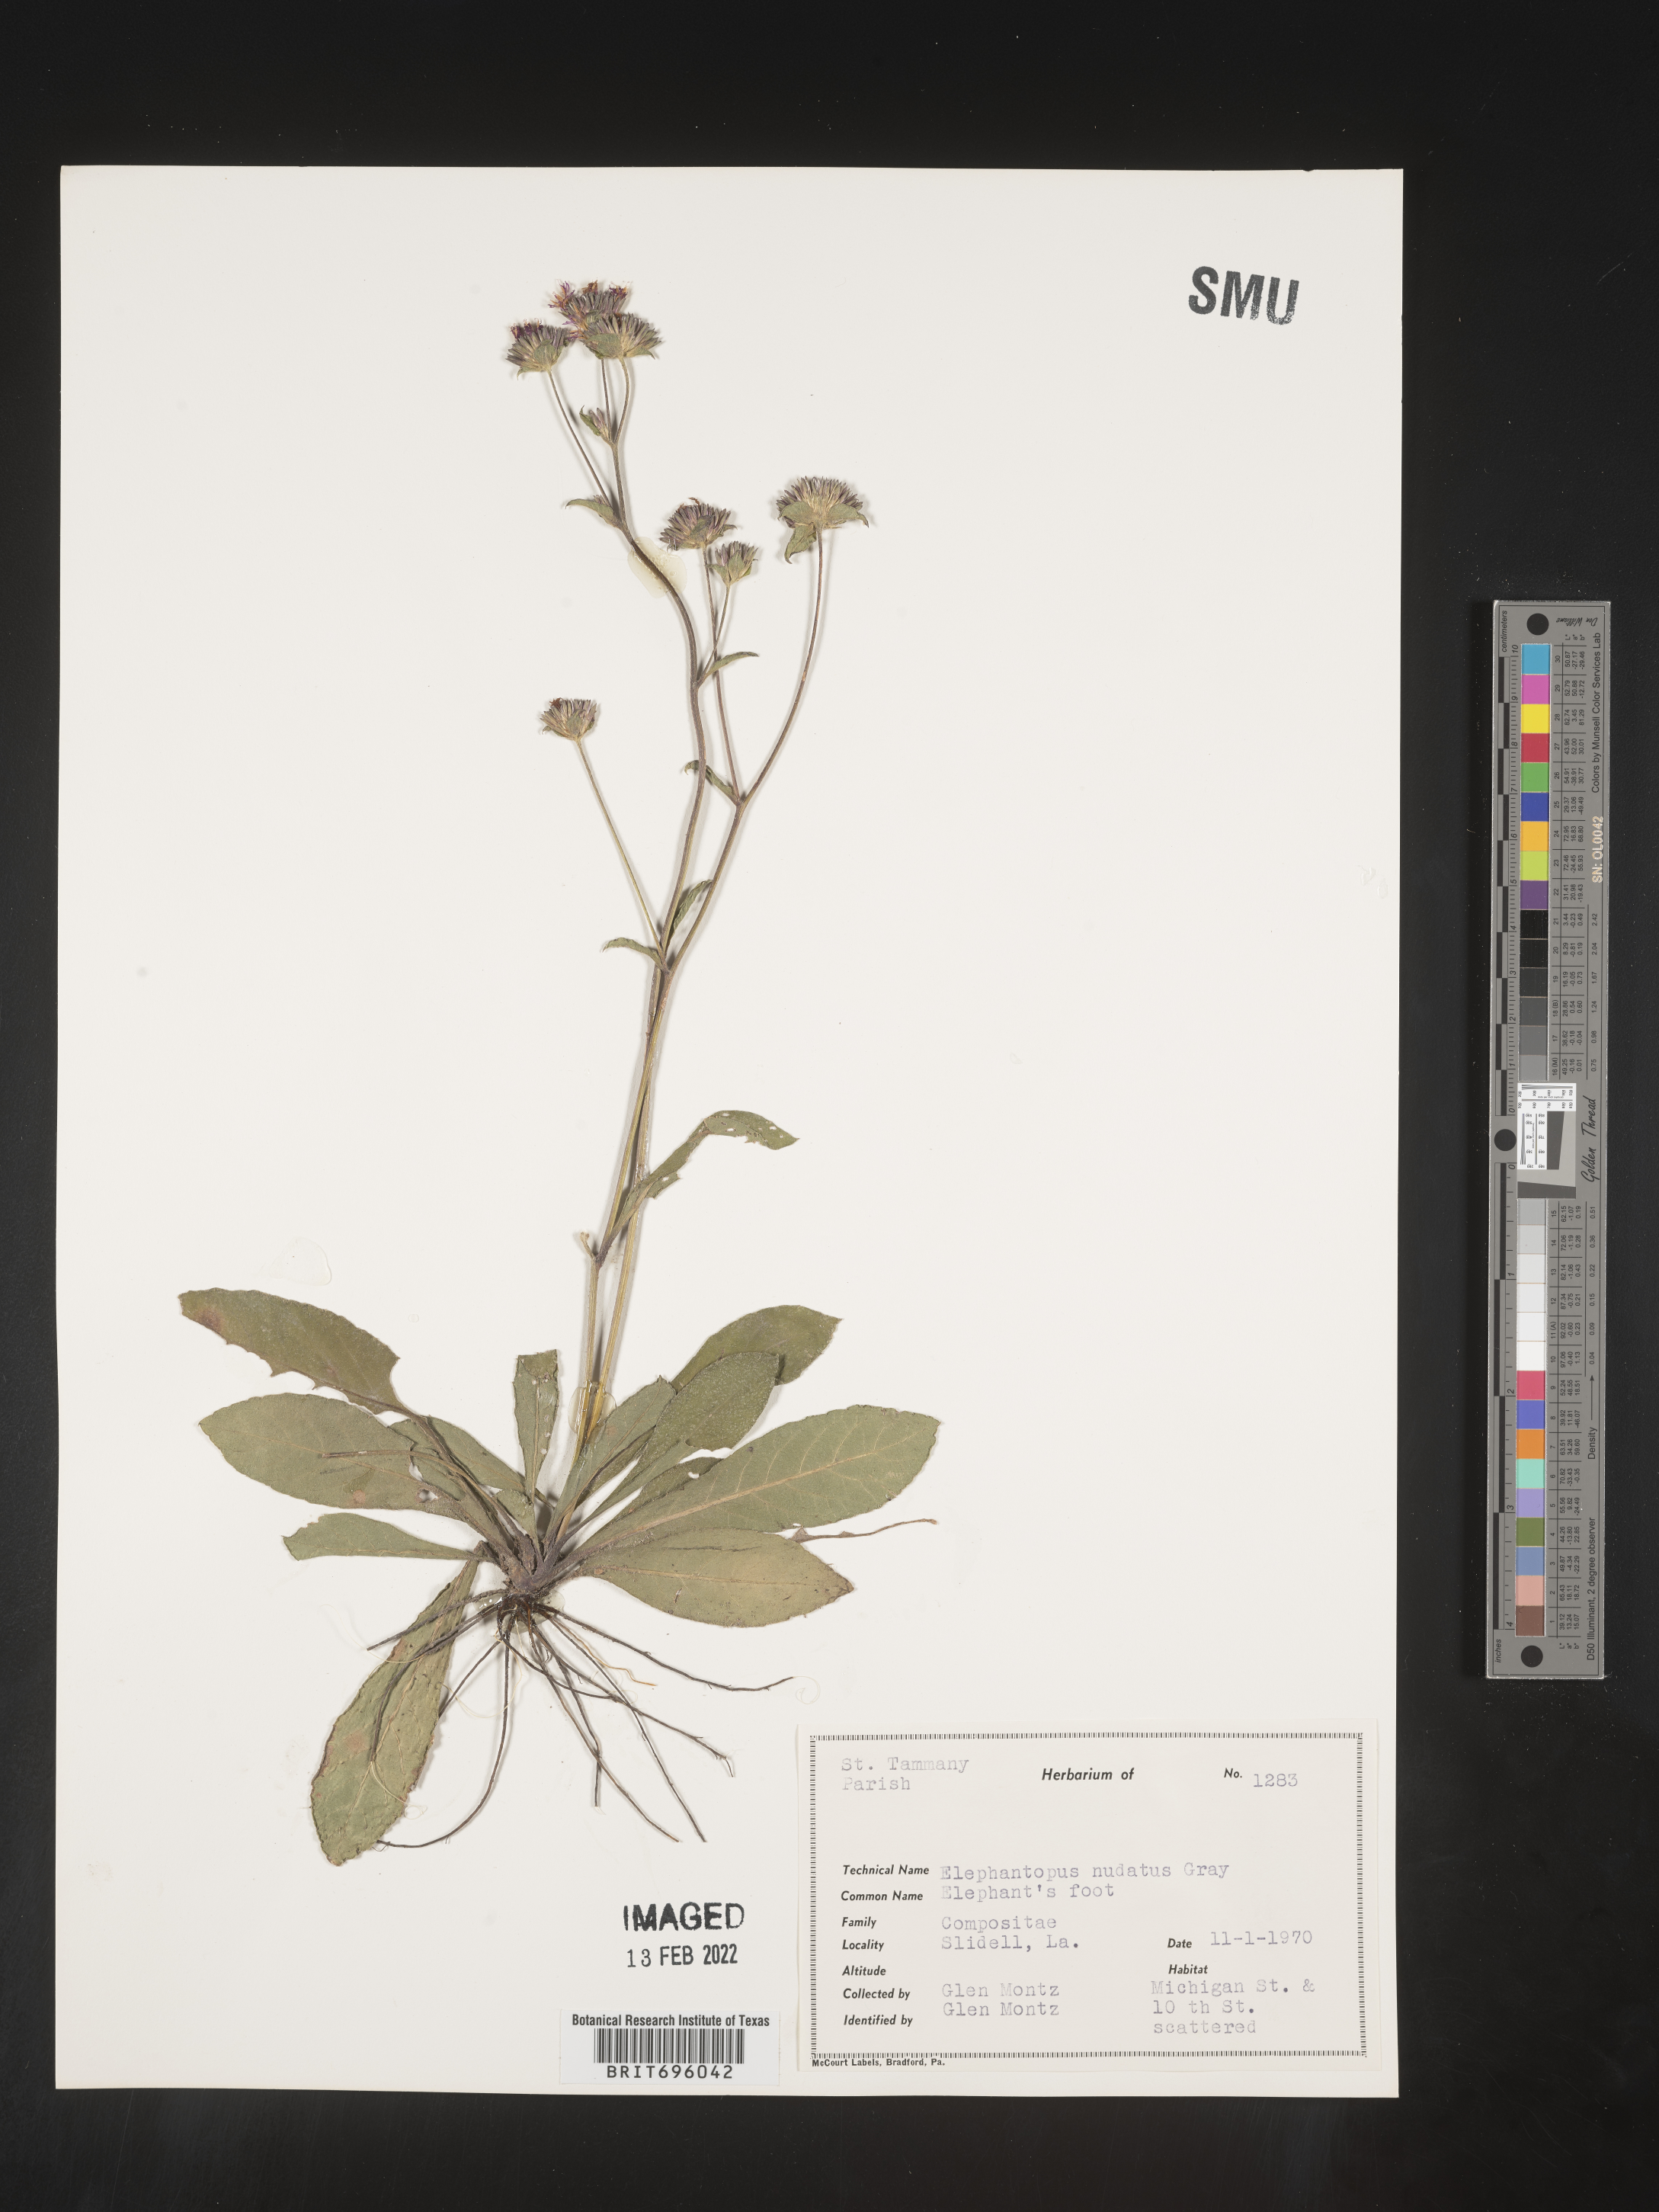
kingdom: Plantae
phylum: Tracheophyta
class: Magnoliopsida
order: Asterales
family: Asteraceae
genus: Elephantopus
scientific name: Elephantopus nudatus
